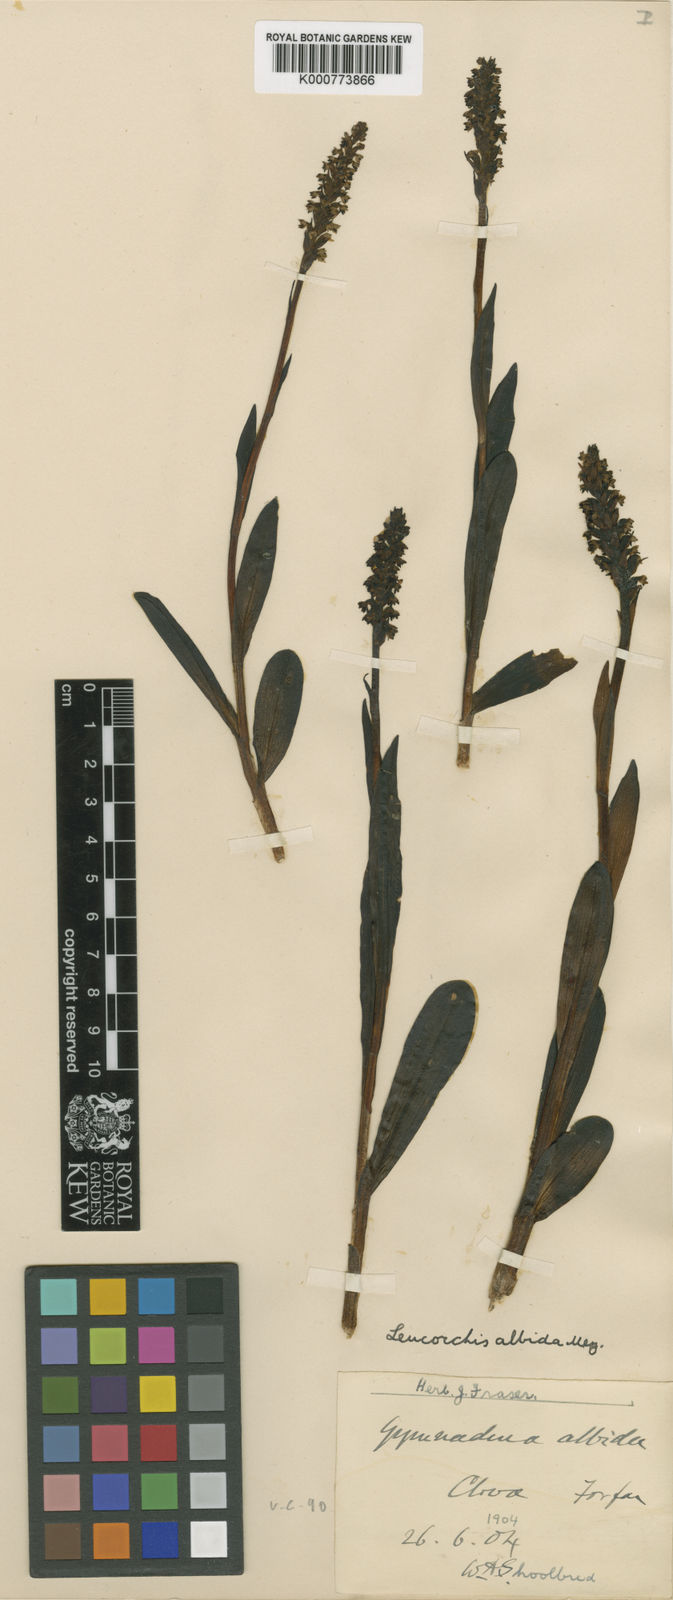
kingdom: Plantae
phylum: Tracheophyta
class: Liliopsida
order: Asparagales
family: Orchidaceae
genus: Pseudorchis
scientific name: Pseudorchis
